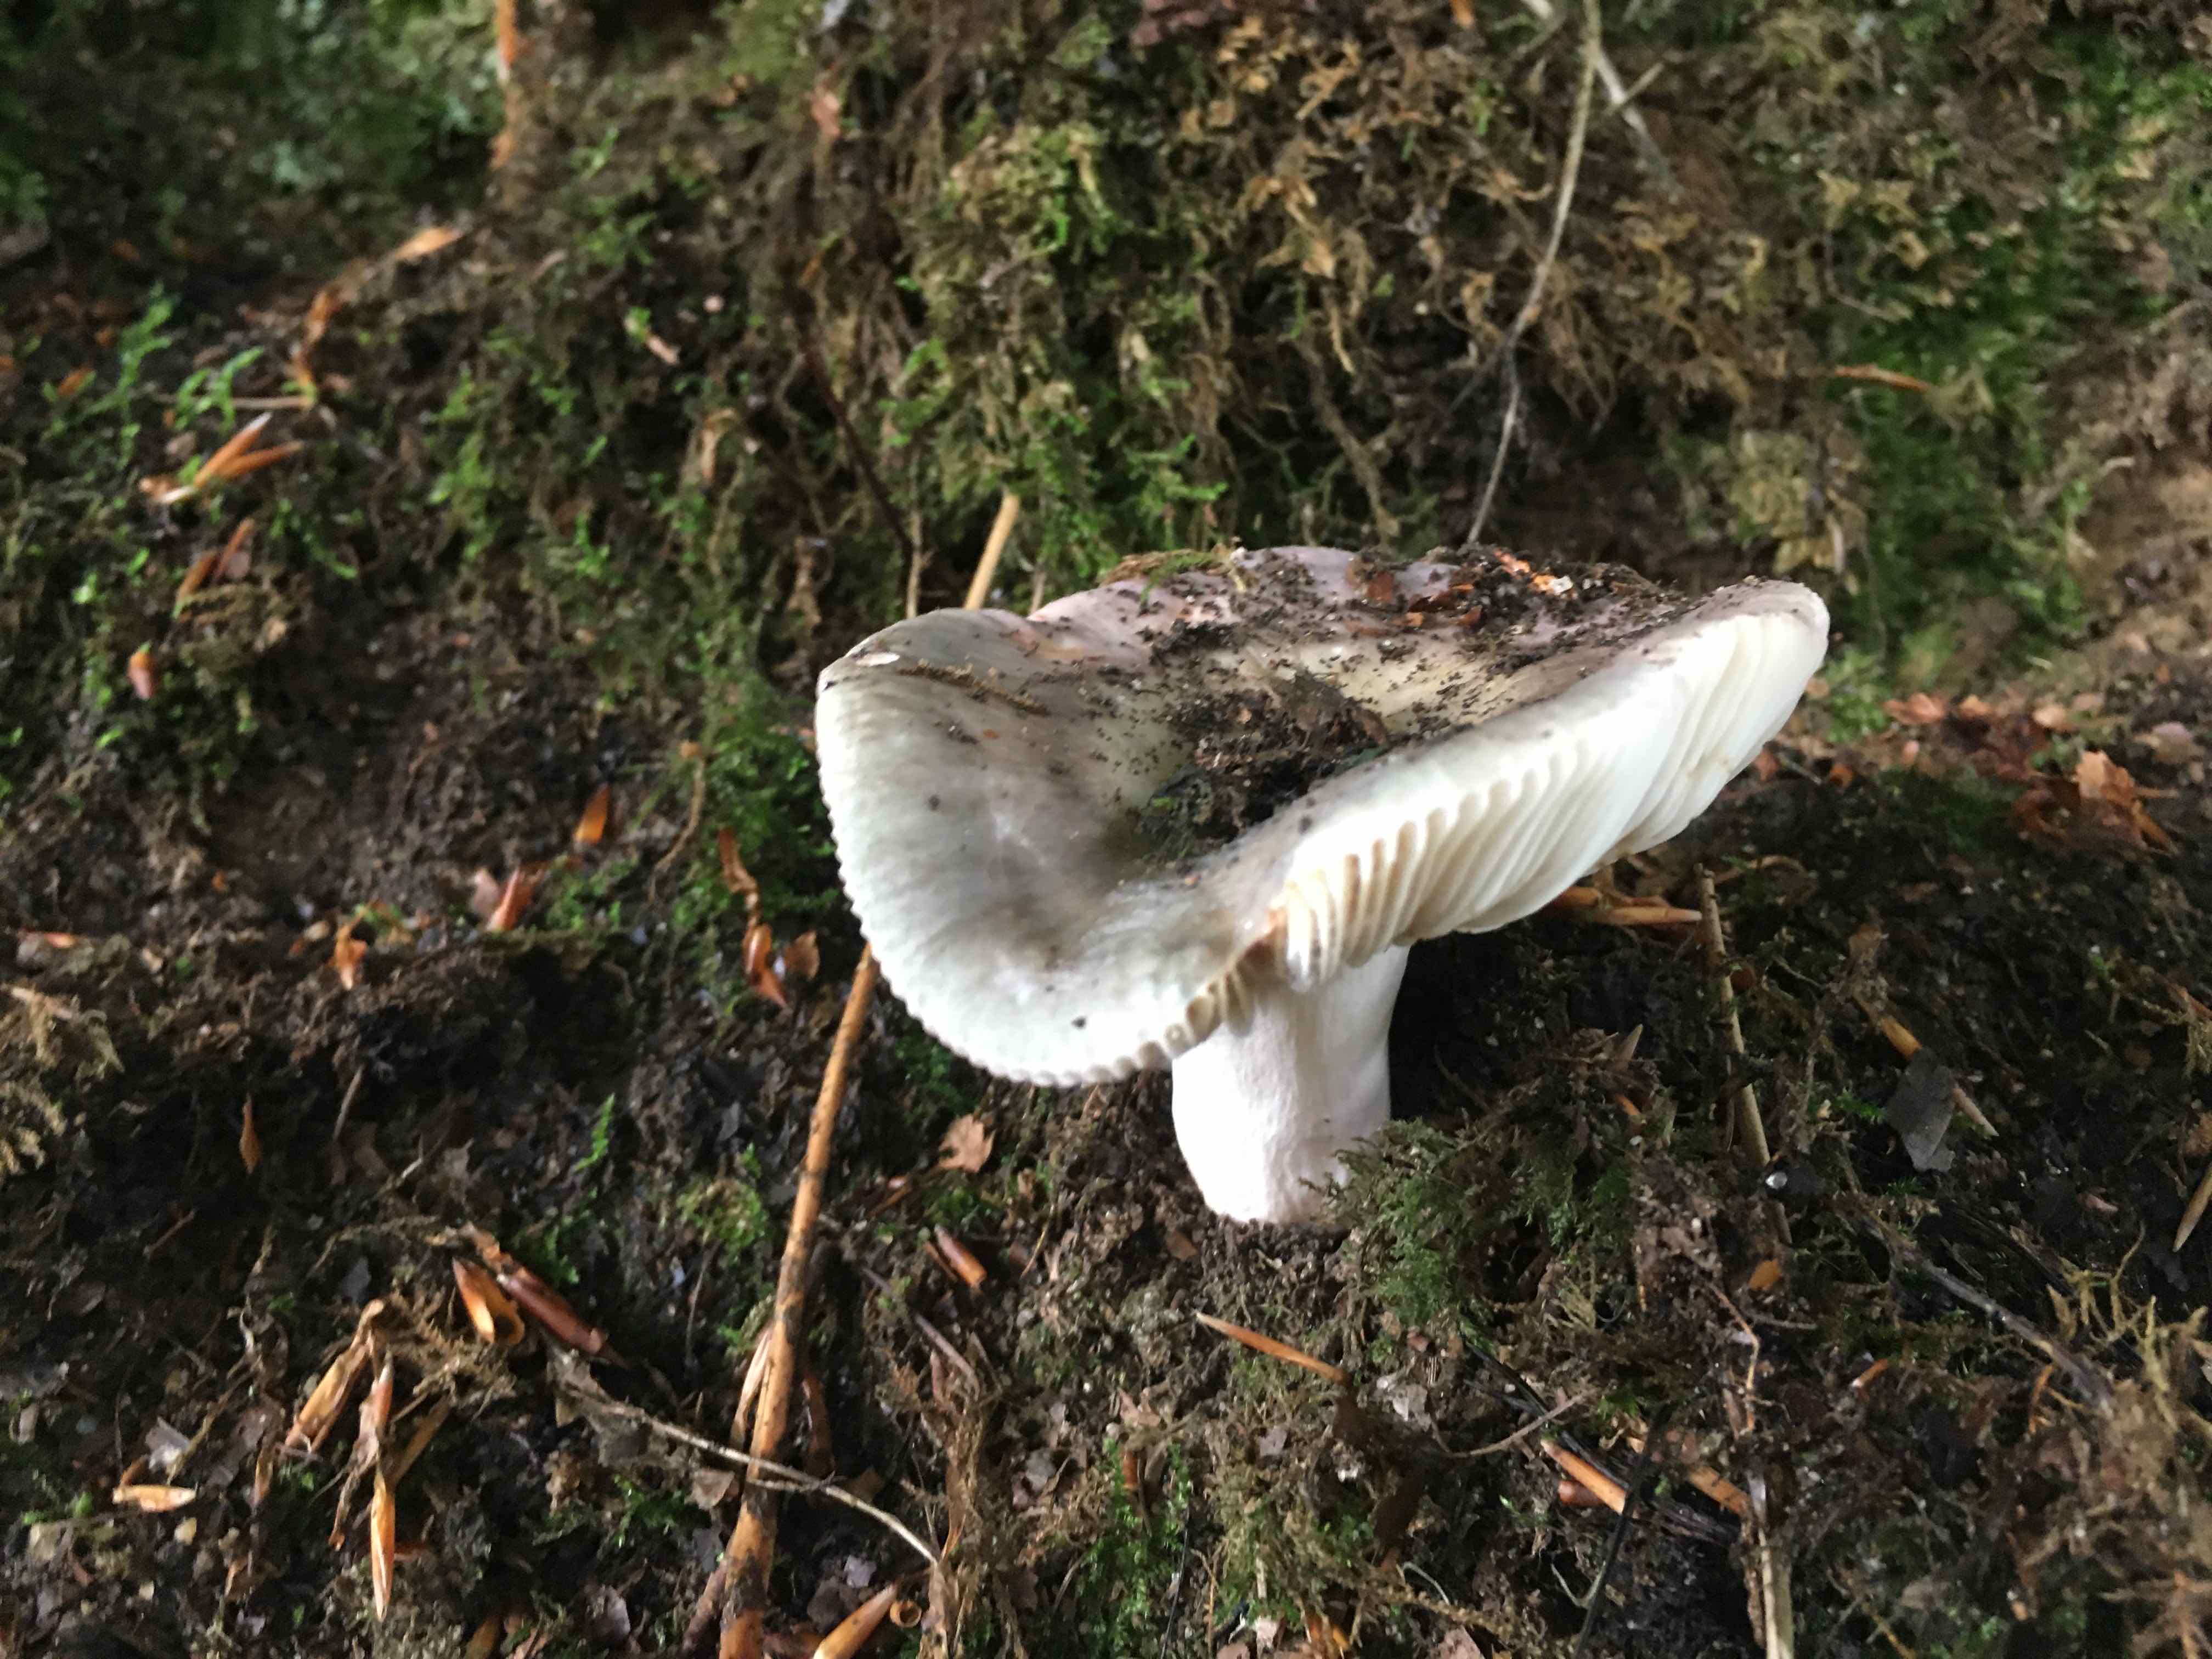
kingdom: Fungi
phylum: Basidiomycota
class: Agaricomycetes
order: Russulales
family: Russulaceae
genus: Russula
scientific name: Russula
